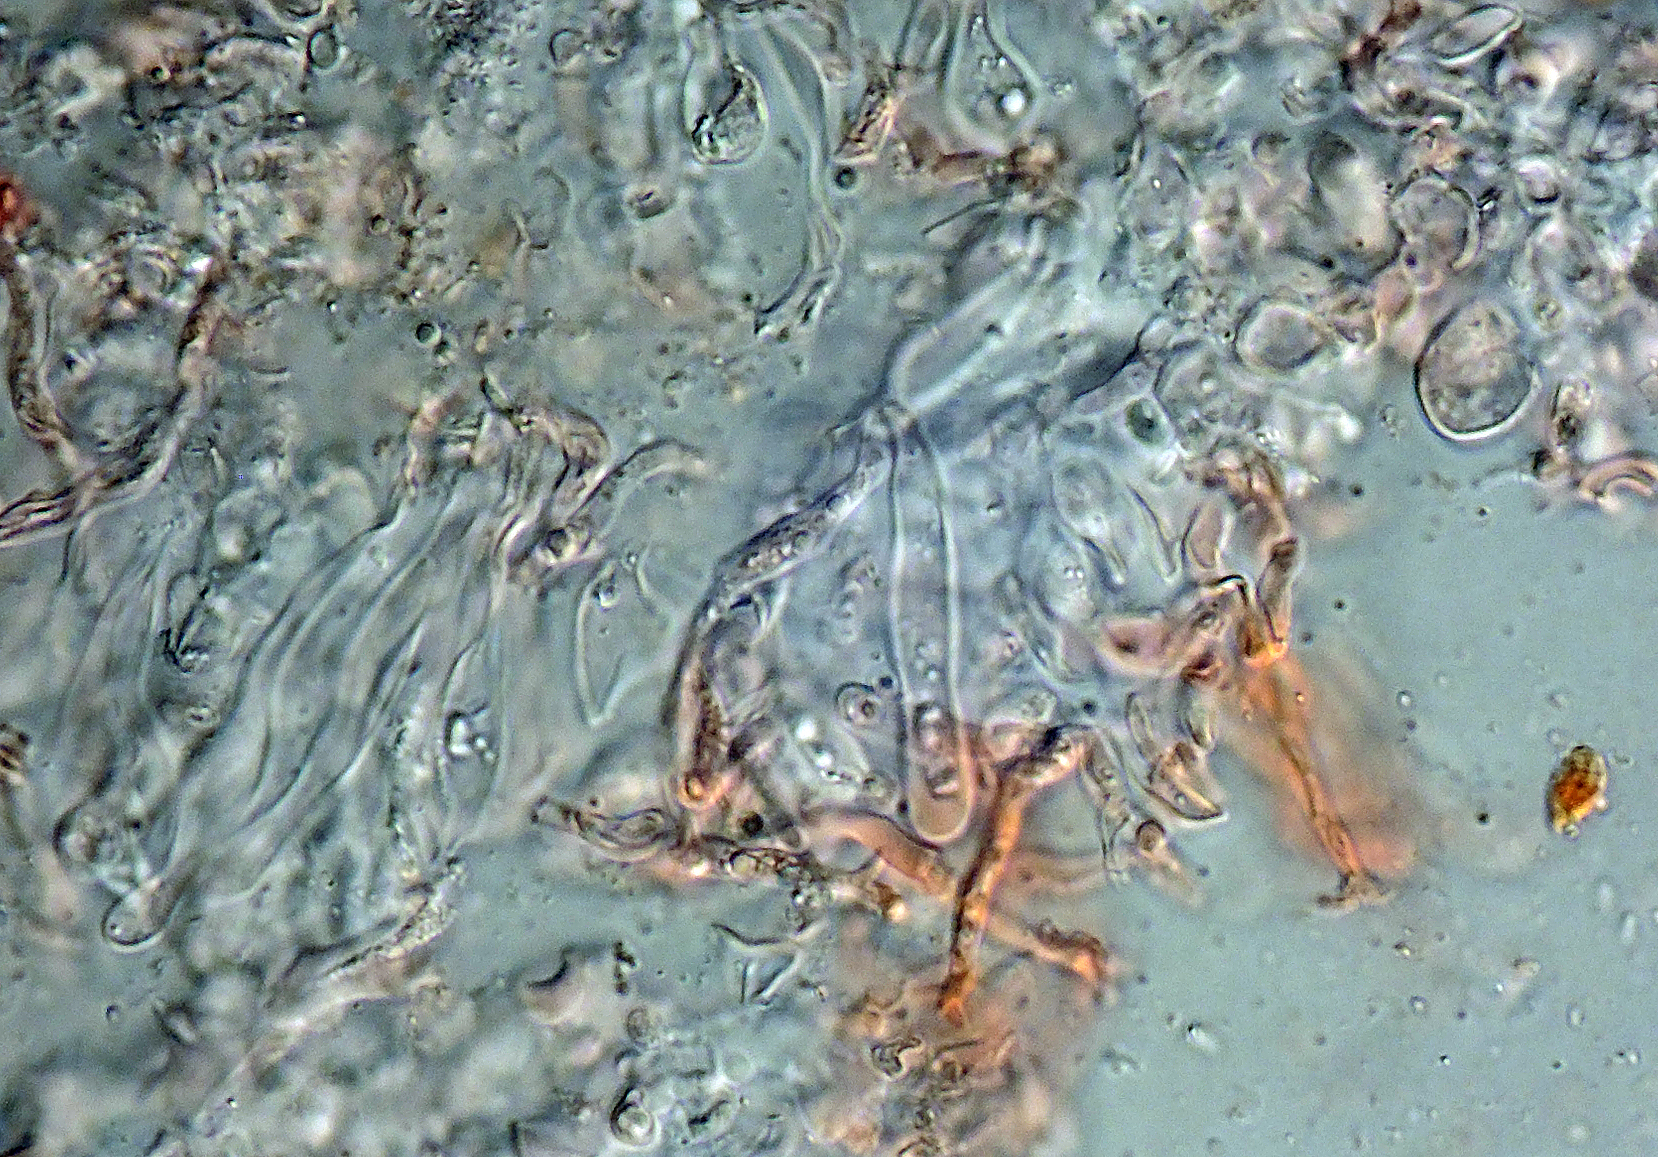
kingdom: Fungi
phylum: Basidiomycota
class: Tremellomycetes
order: Filobasidiales
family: Filobasidiaceae
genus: Zyzygomyces
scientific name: Zyzygomyces physciacearum
